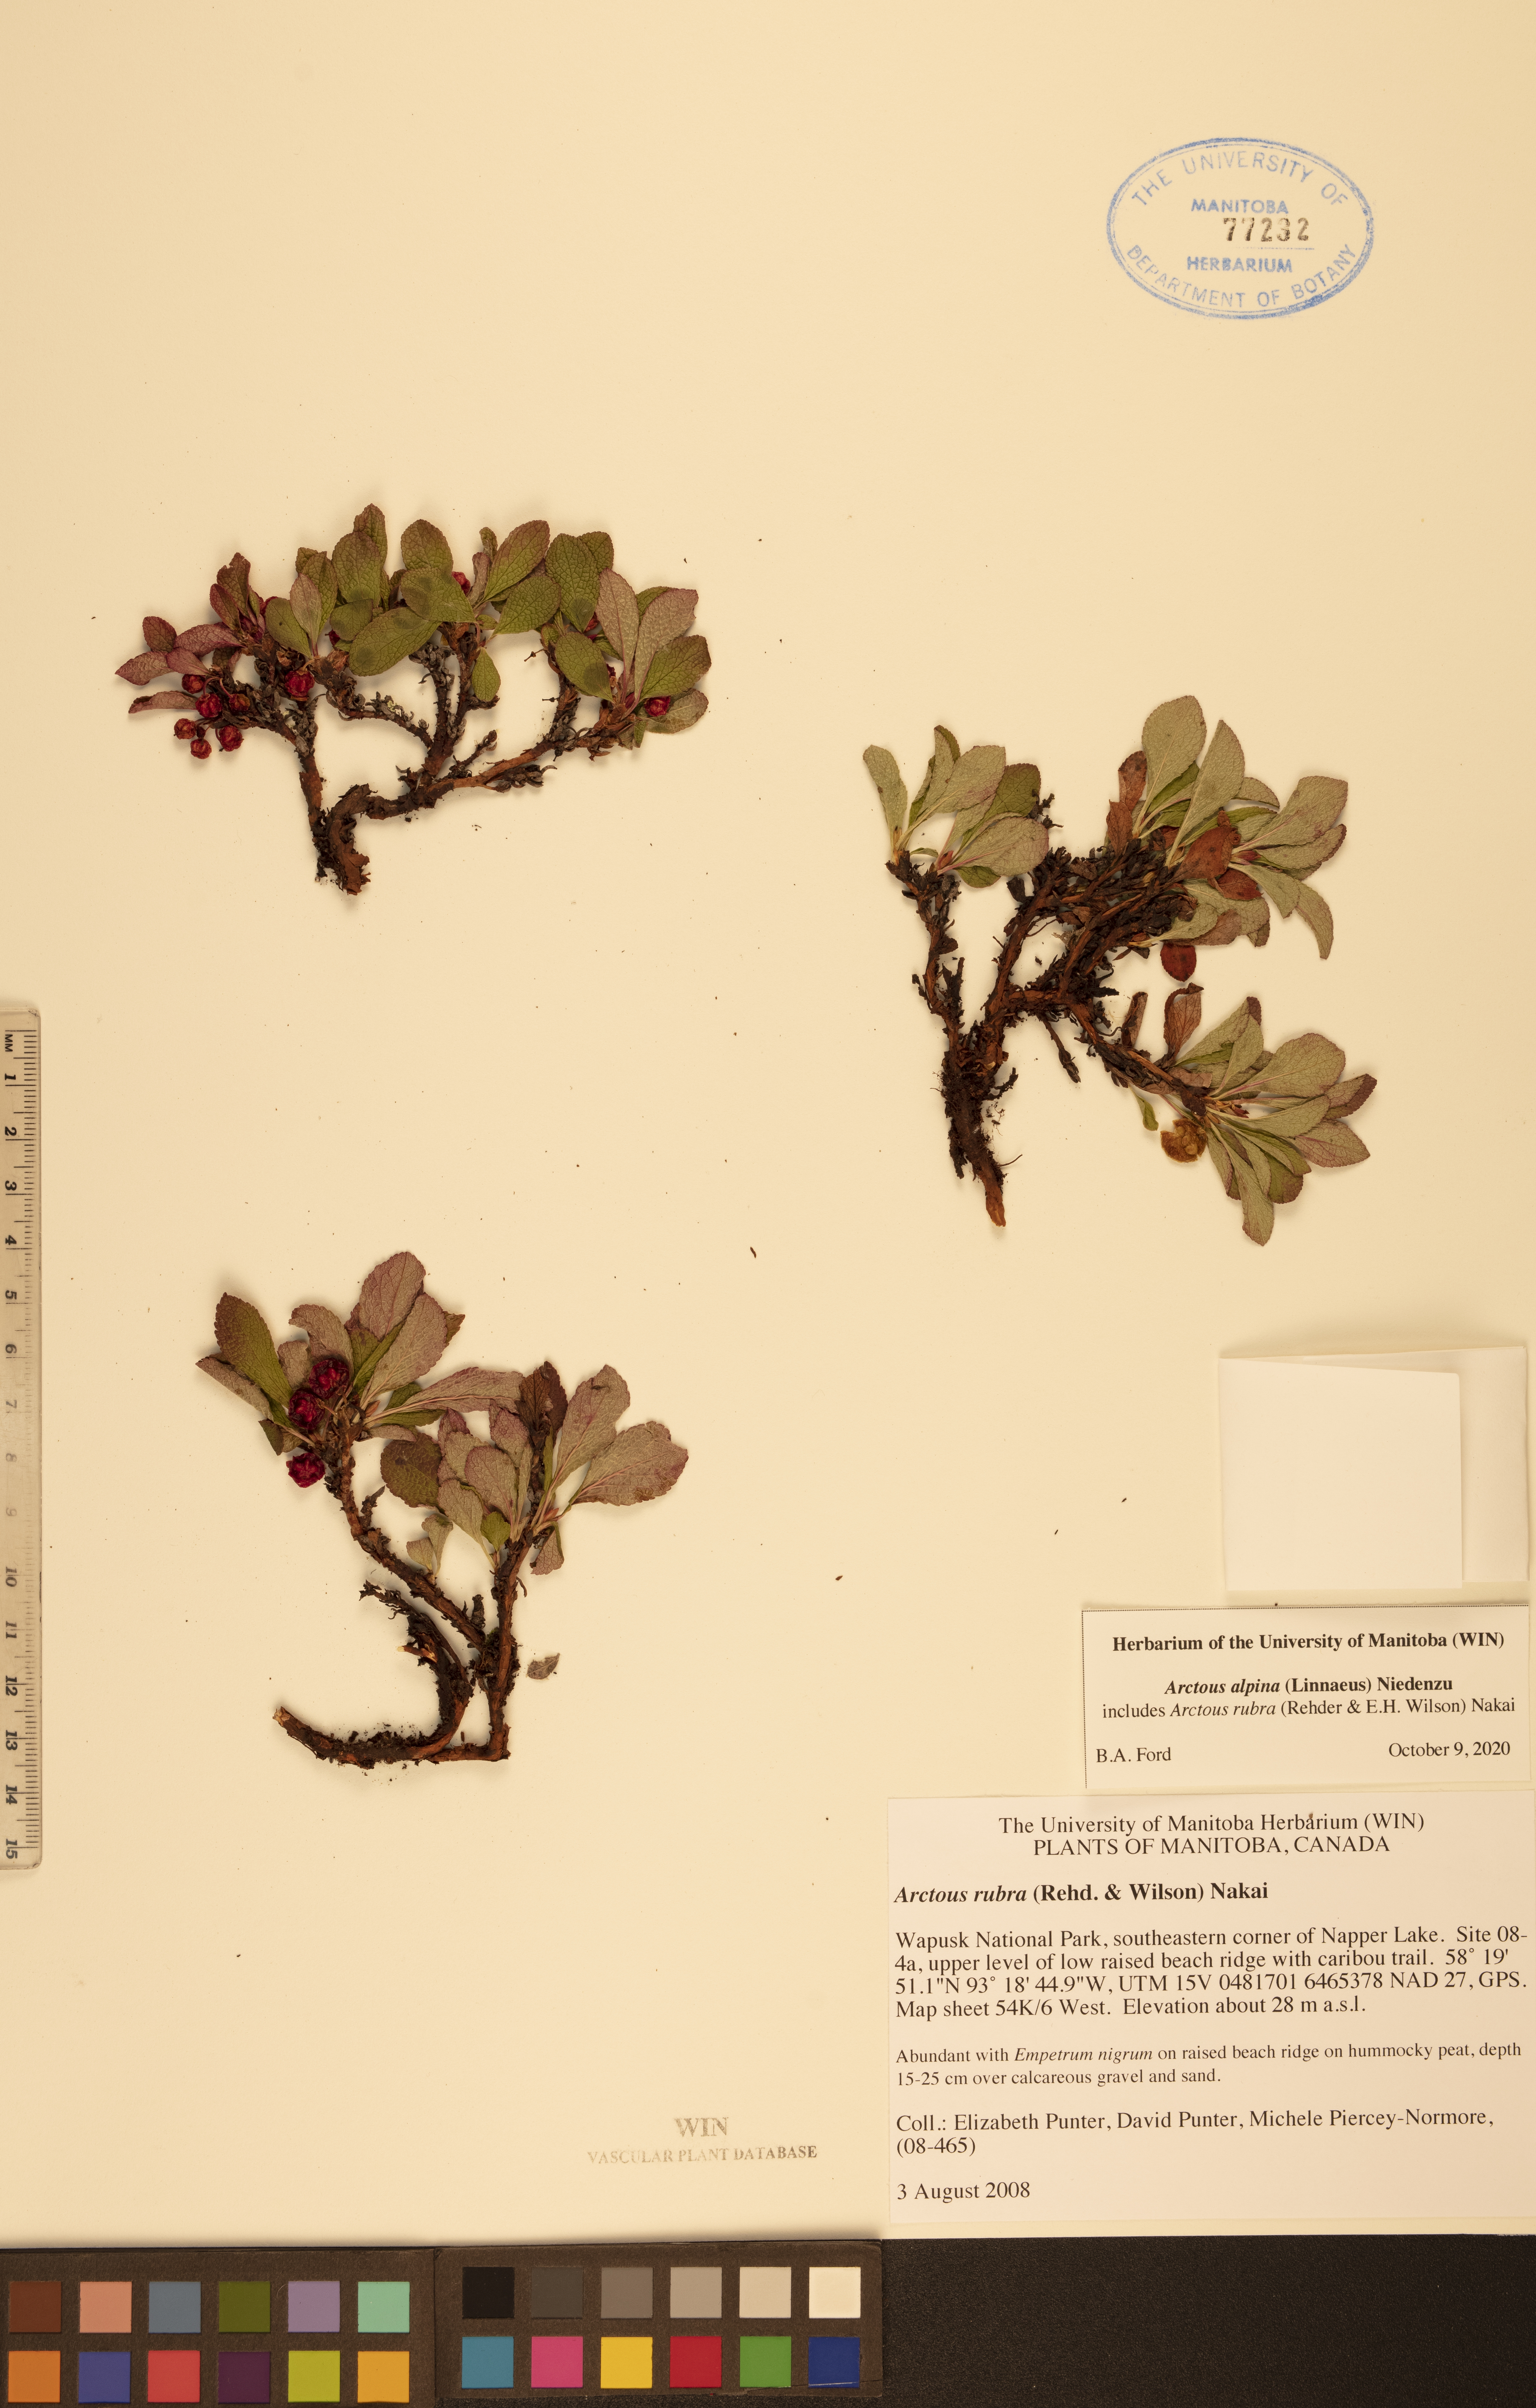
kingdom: Plantae
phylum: Tracheophyta
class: Magnoliopsida
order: Ericales
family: Ericaceae
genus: Arctostaphylos
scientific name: Arctostaphylos alpinus
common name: Alpine bearberry
